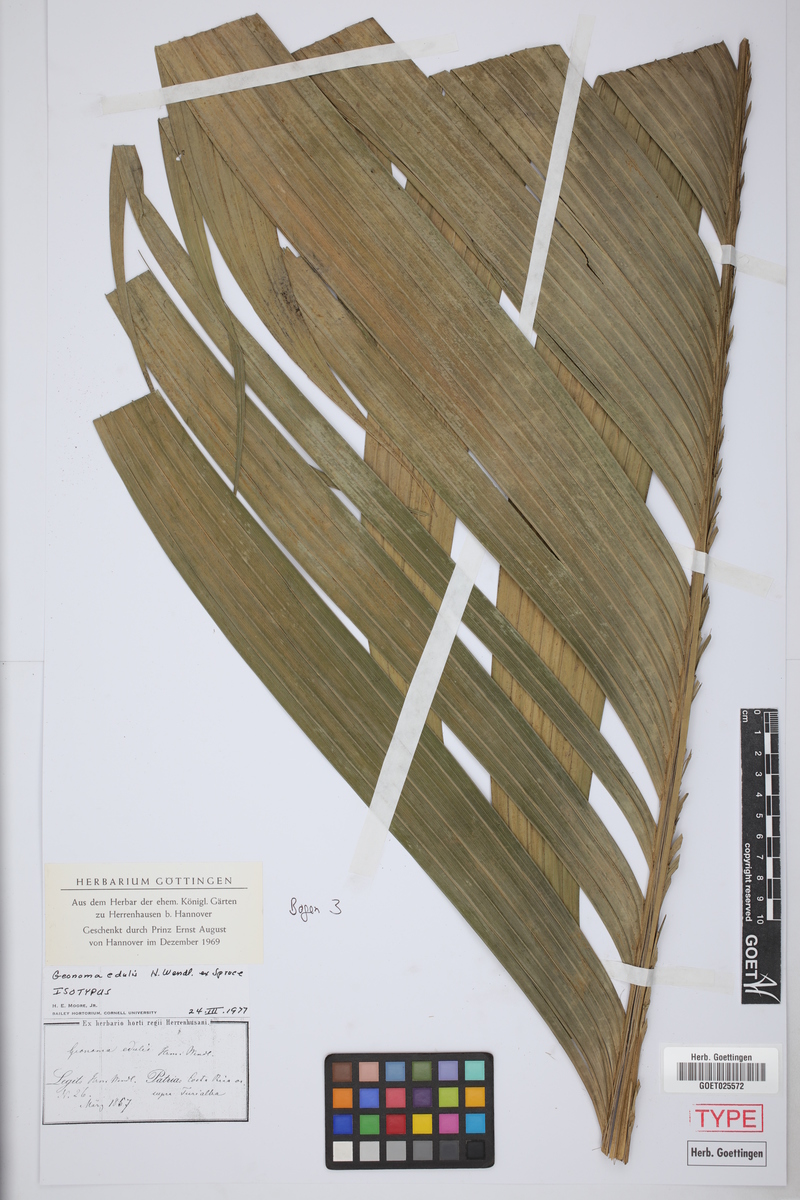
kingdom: Plantae
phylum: Tracheophyta
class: Liliopsida
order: Arecales
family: Arecaceae
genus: Geonoma
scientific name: Geonoma undata
